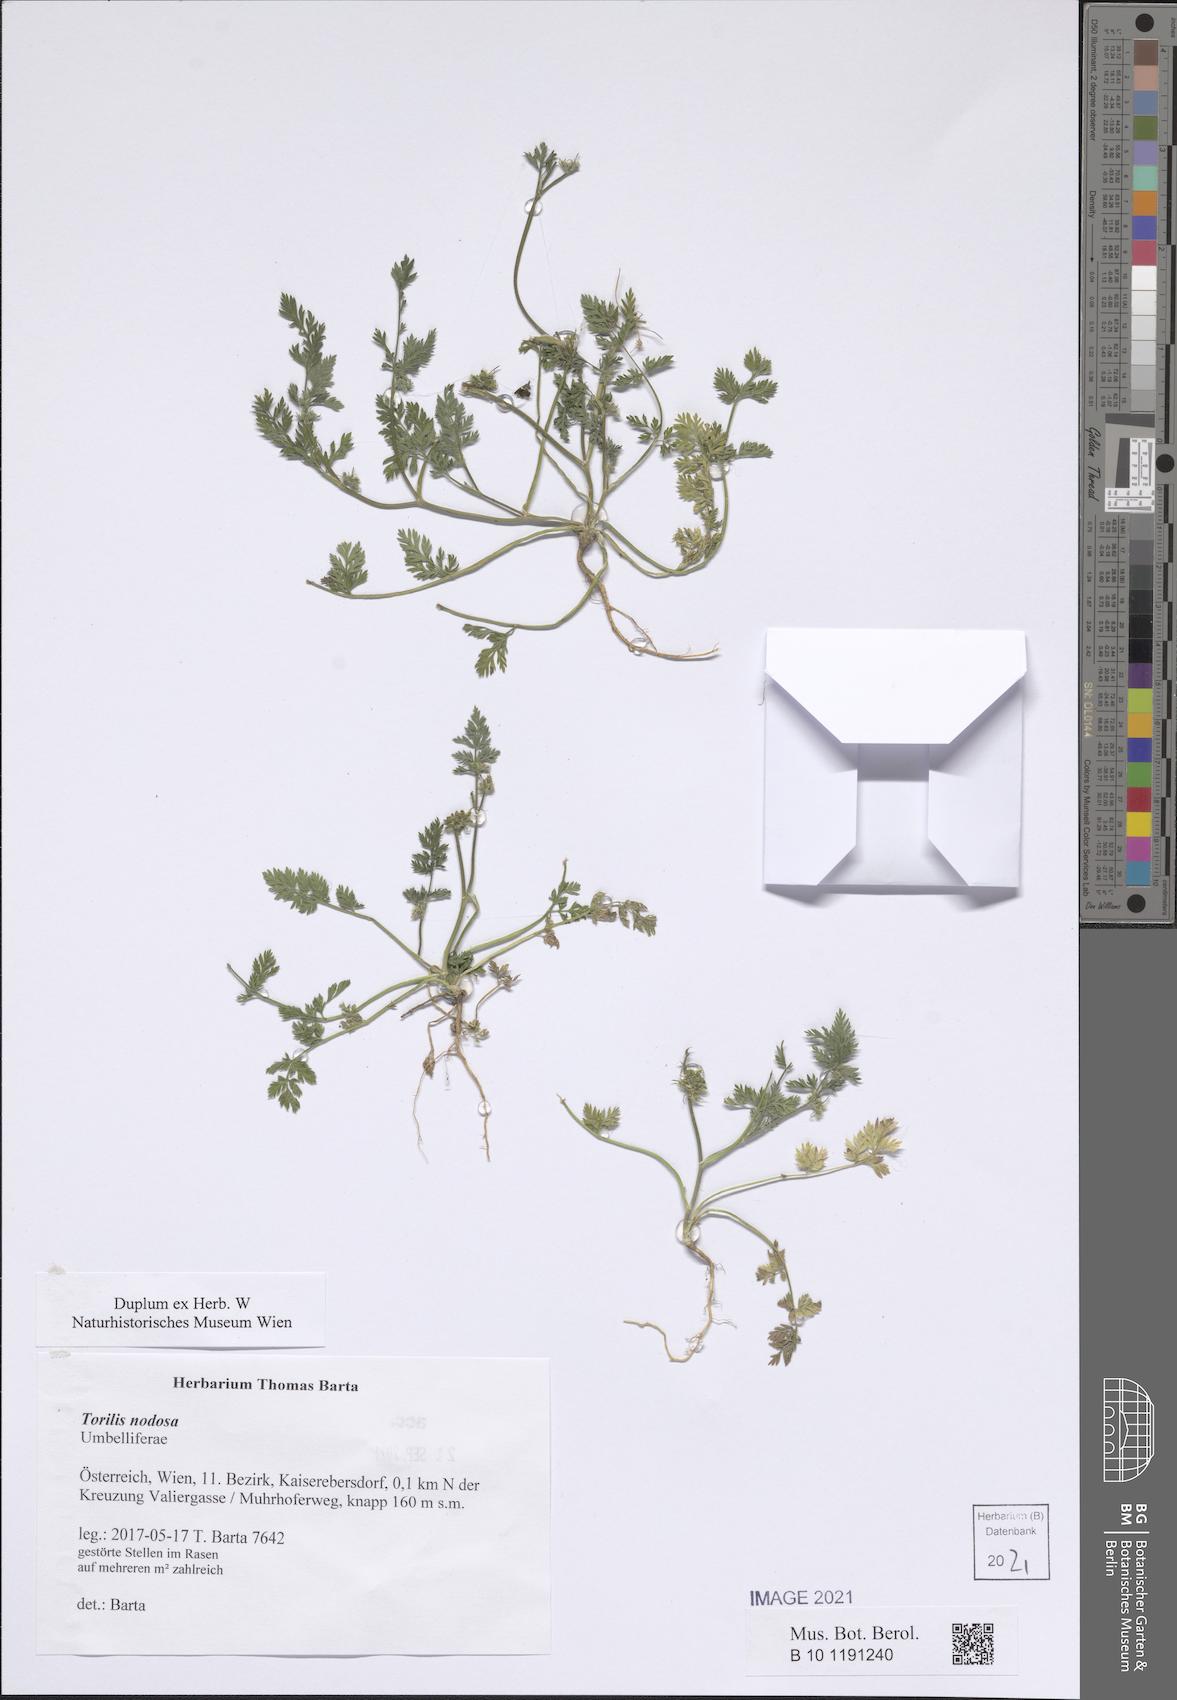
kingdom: Plantae
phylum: Tracheophyta
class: Magnoliopsida
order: Apiales
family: Apiaceae
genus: Torilis
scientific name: Torilis nodosa
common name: Knotted hedge-parsley
